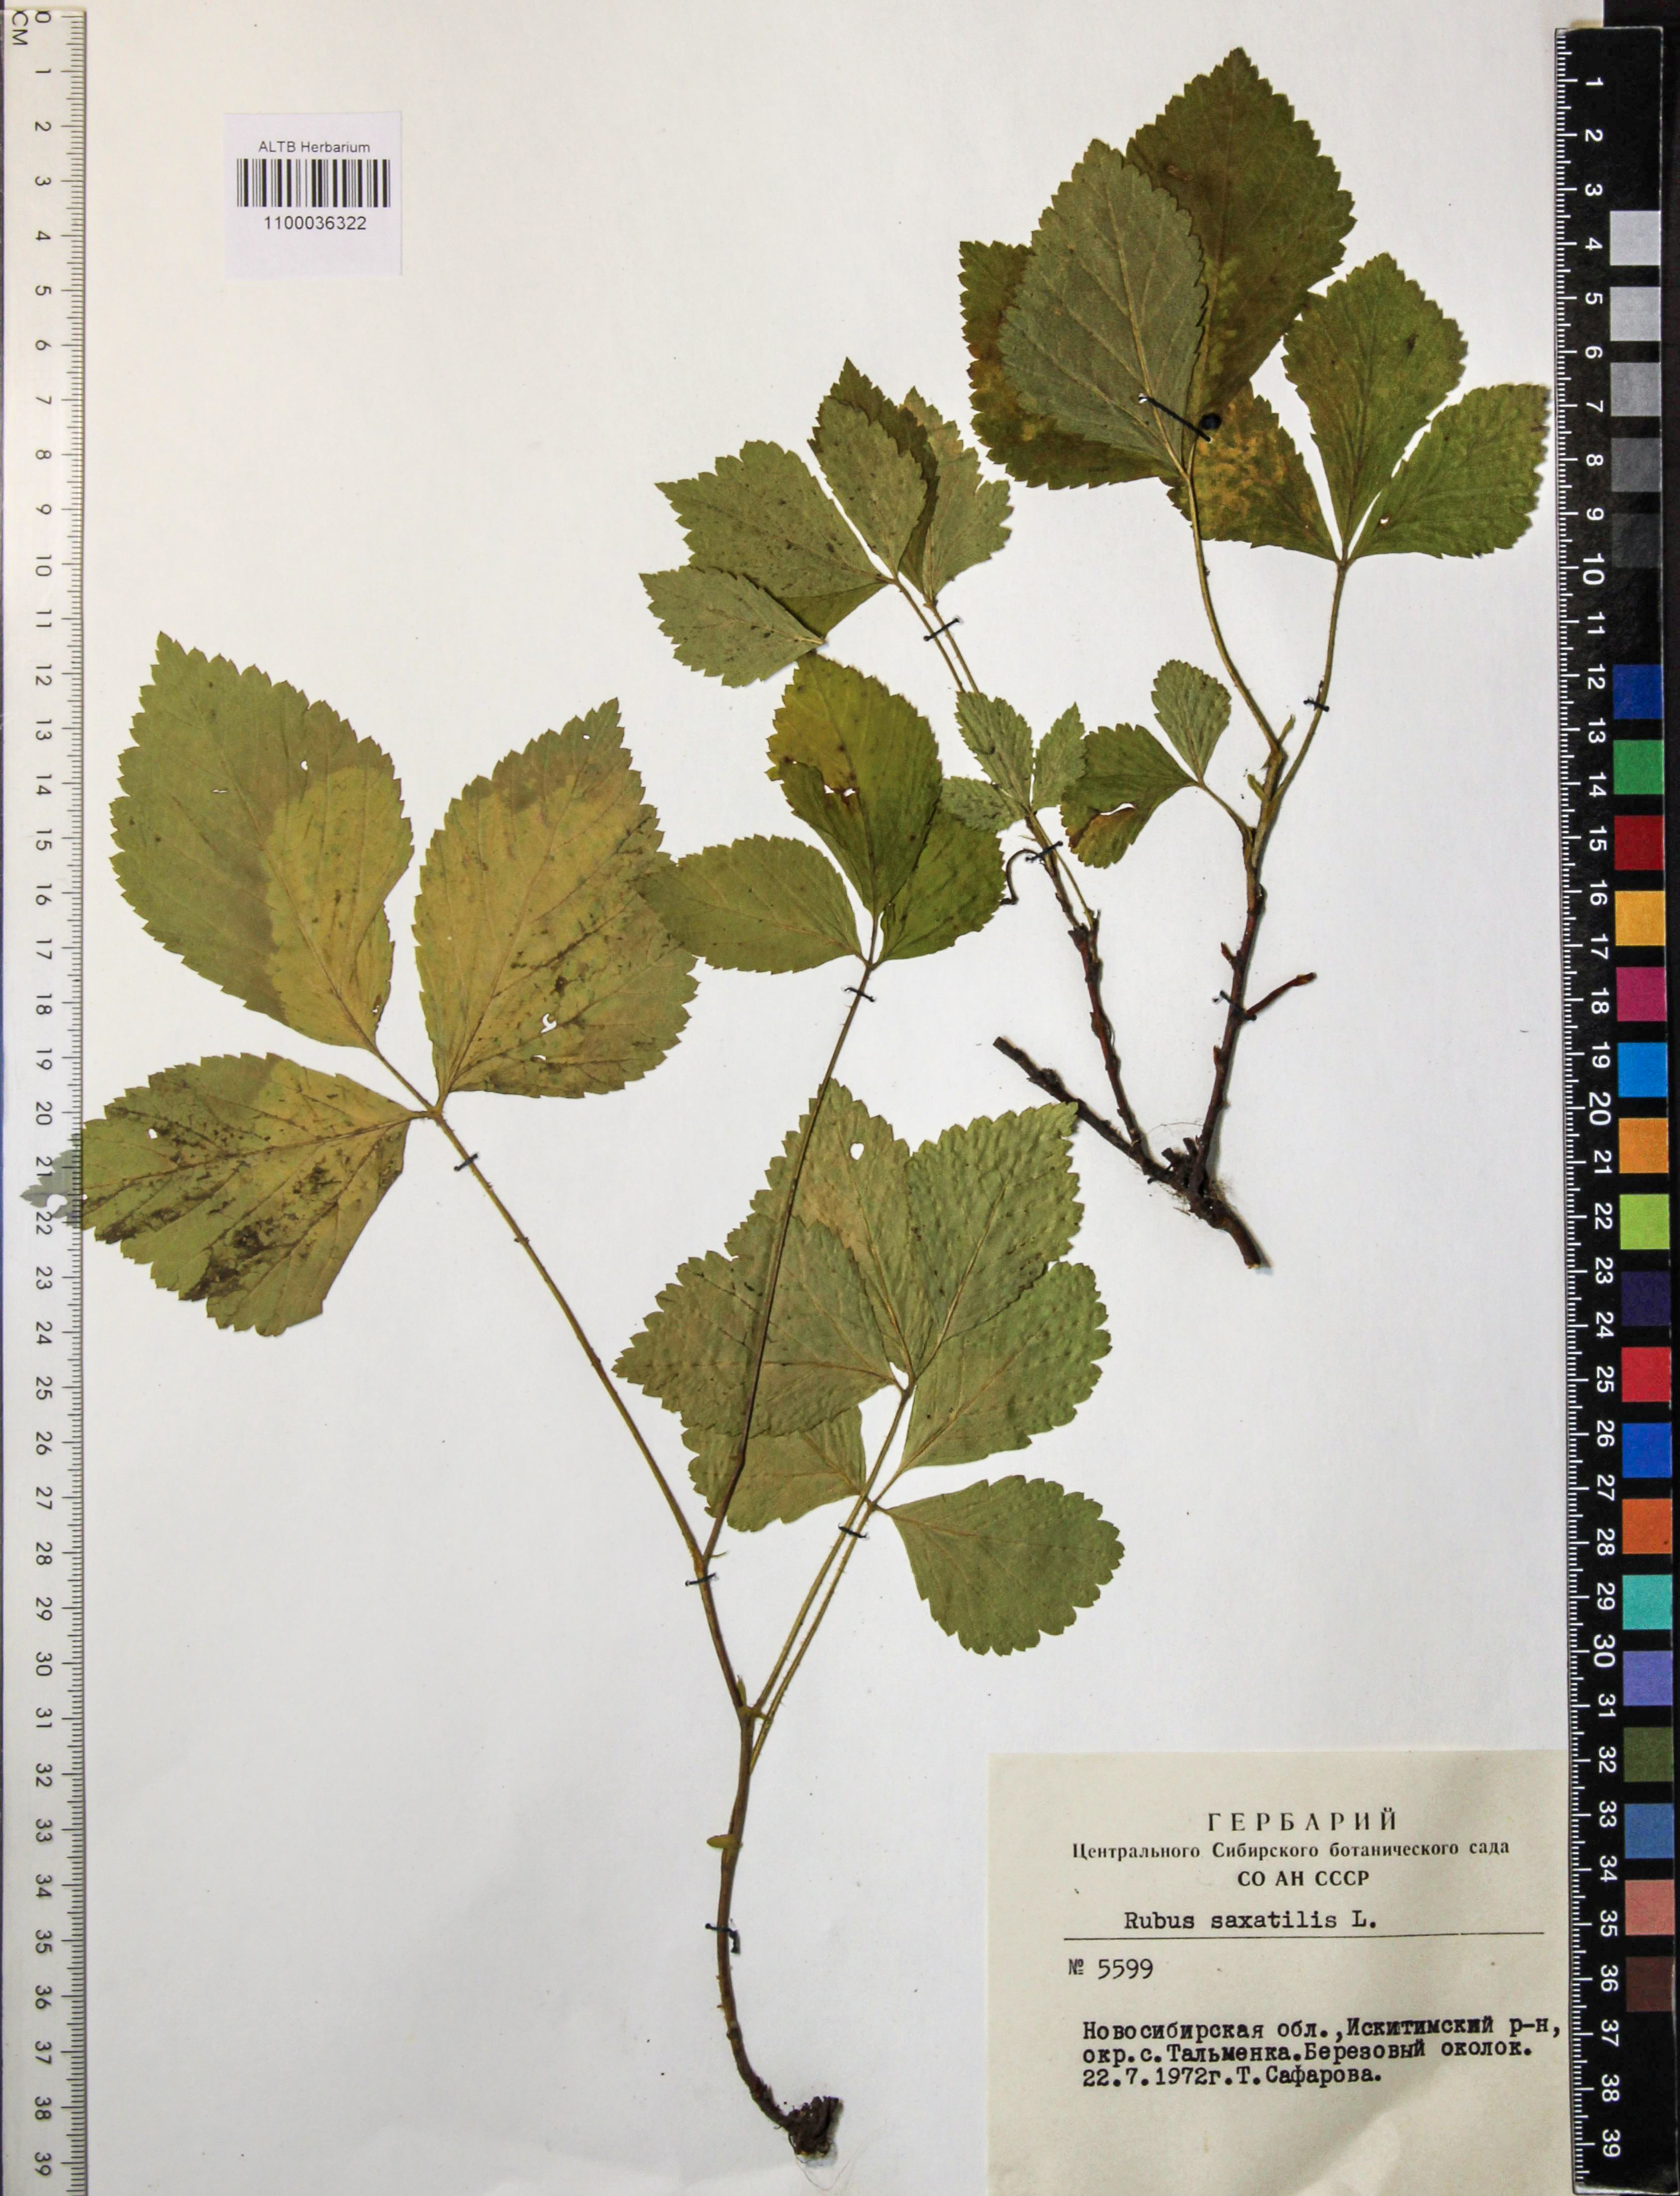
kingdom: Plantae
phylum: Tracheophyta
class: Magnoliopsida
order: Rosales
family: Rosaceae
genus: Rubus
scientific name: Rubus saxatilis
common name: Stone bramble
